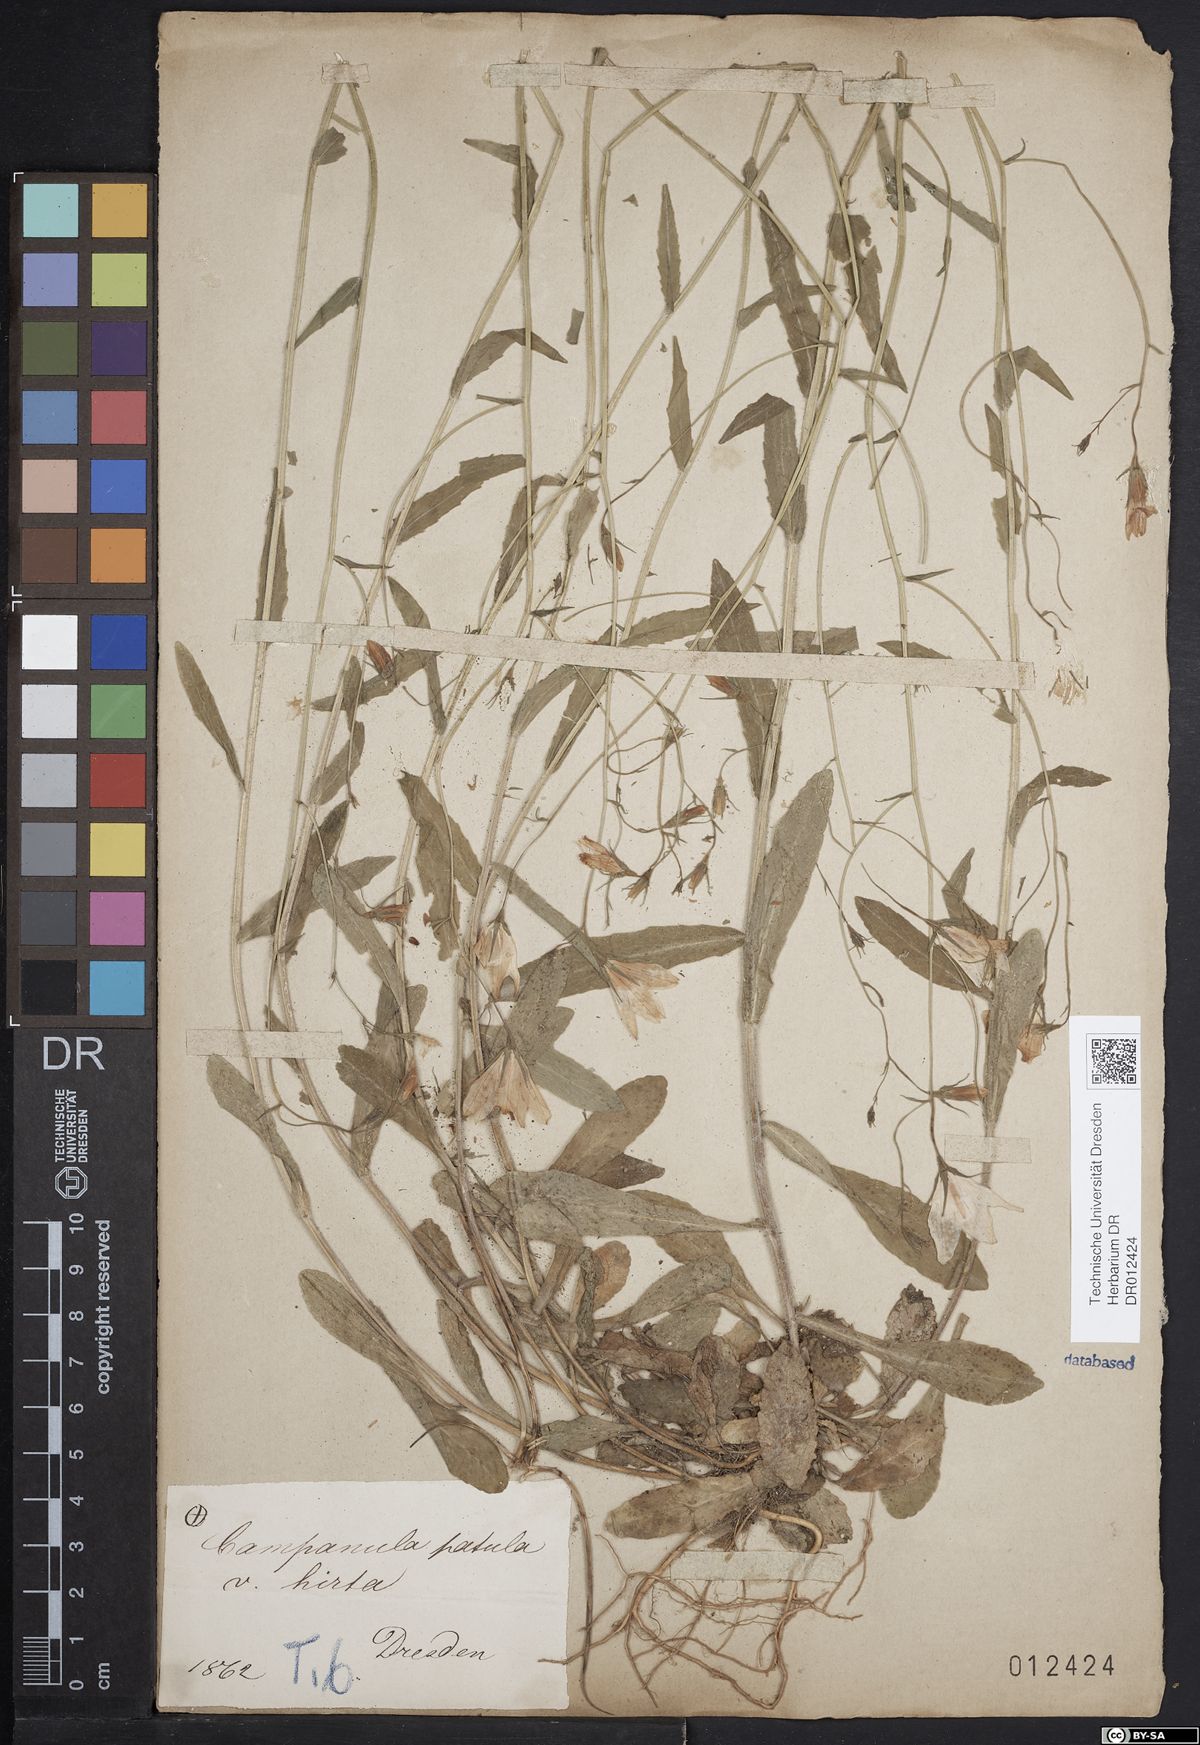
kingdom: Plantae
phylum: Tracheophyta
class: Magnoliopsida
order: Asterales
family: Campanulaceae
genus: Campanula
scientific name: Campanula patula
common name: Spreading bellflower
